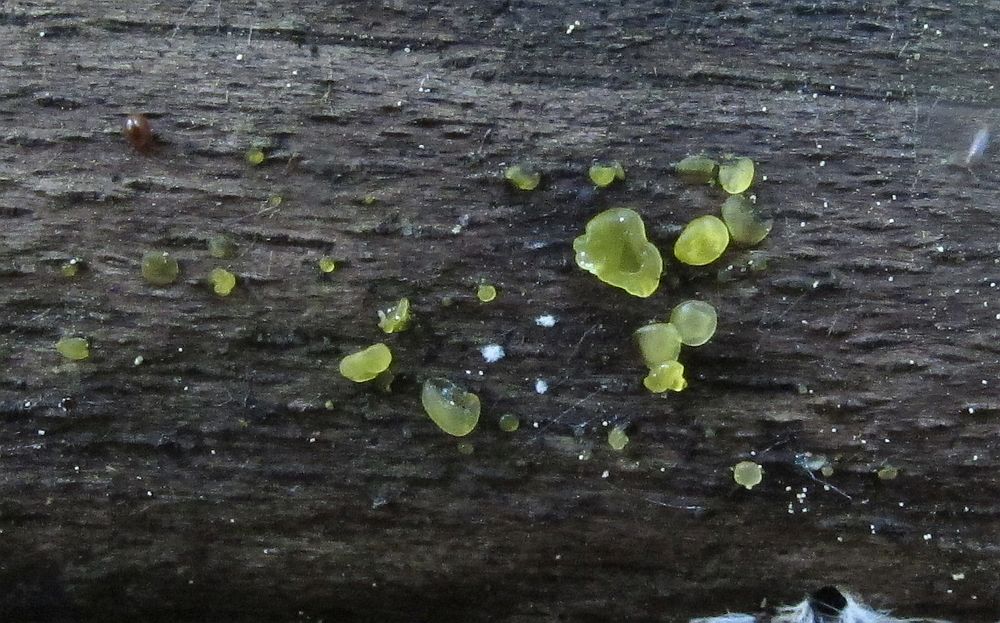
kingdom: Fungi
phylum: Basidiomycota
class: Dacrymycetes
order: Dacrymycetales
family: Dacrymycetaceae
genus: Dacrymyces
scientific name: Dacrymyces lacrymalis
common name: rynket tåresvamp
